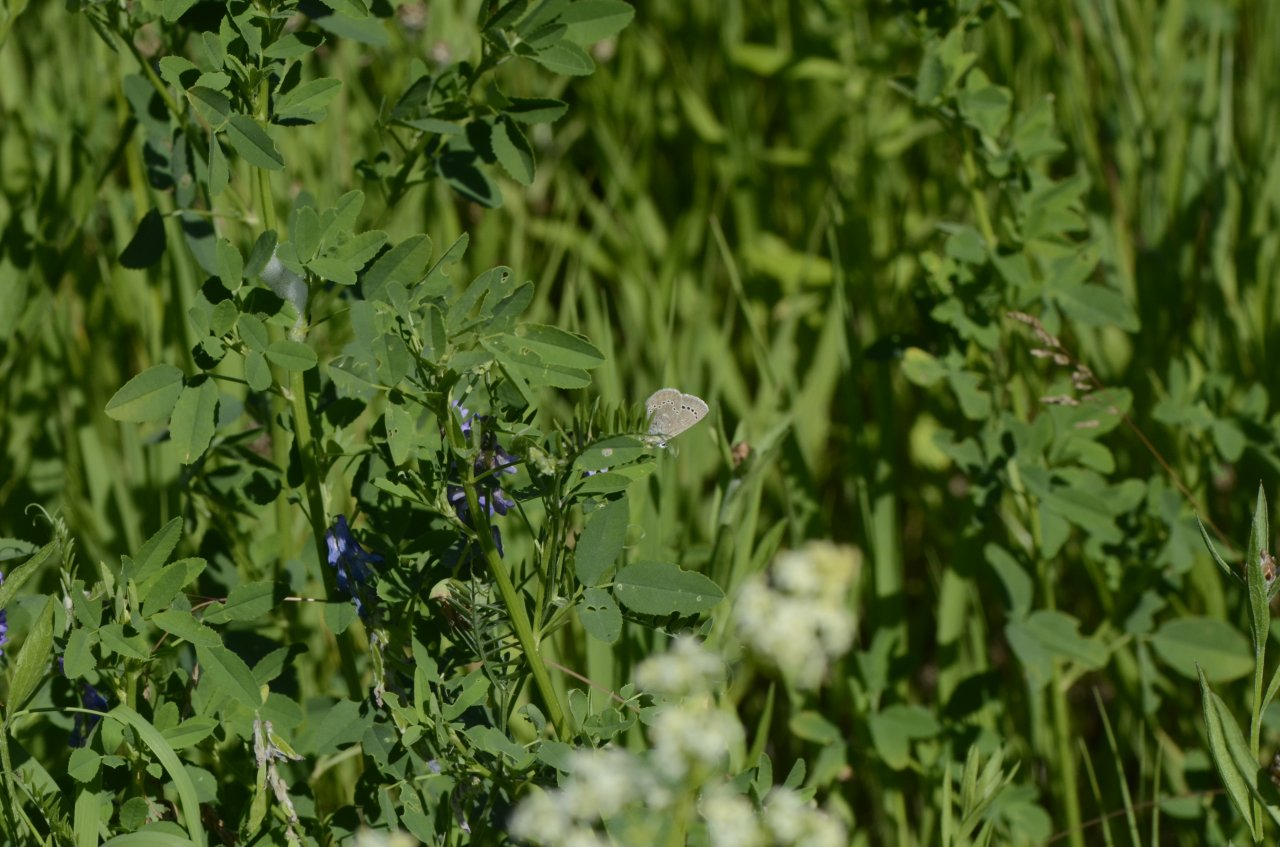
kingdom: Animalia
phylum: Arthropoda
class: Insecta
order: Lepidoptera
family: Lycaenidae
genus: Glaucopsyche
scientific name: Glaucopsyche lygdamus
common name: Silvery Blue
